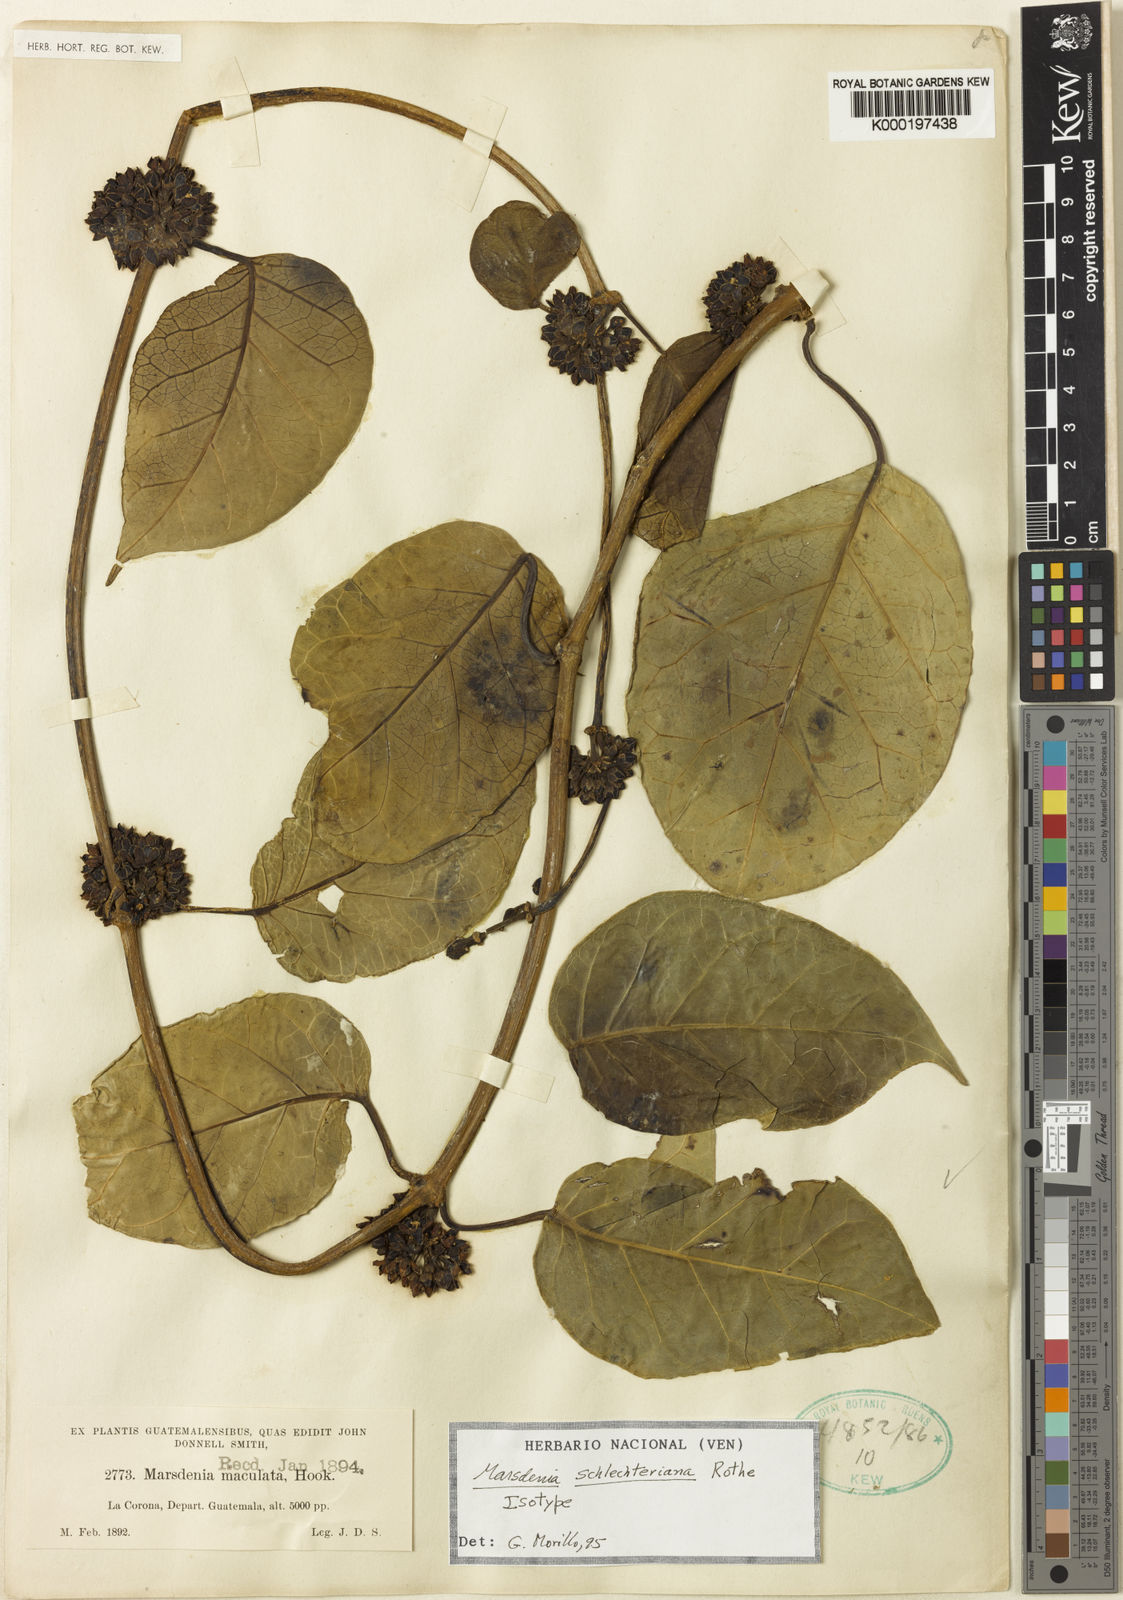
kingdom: Plantae
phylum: Tracheophyta
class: Magnoliopsida
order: Gentianales
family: Apocynaceae
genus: Ruehssia
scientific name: Ruehssia schlechteriana
